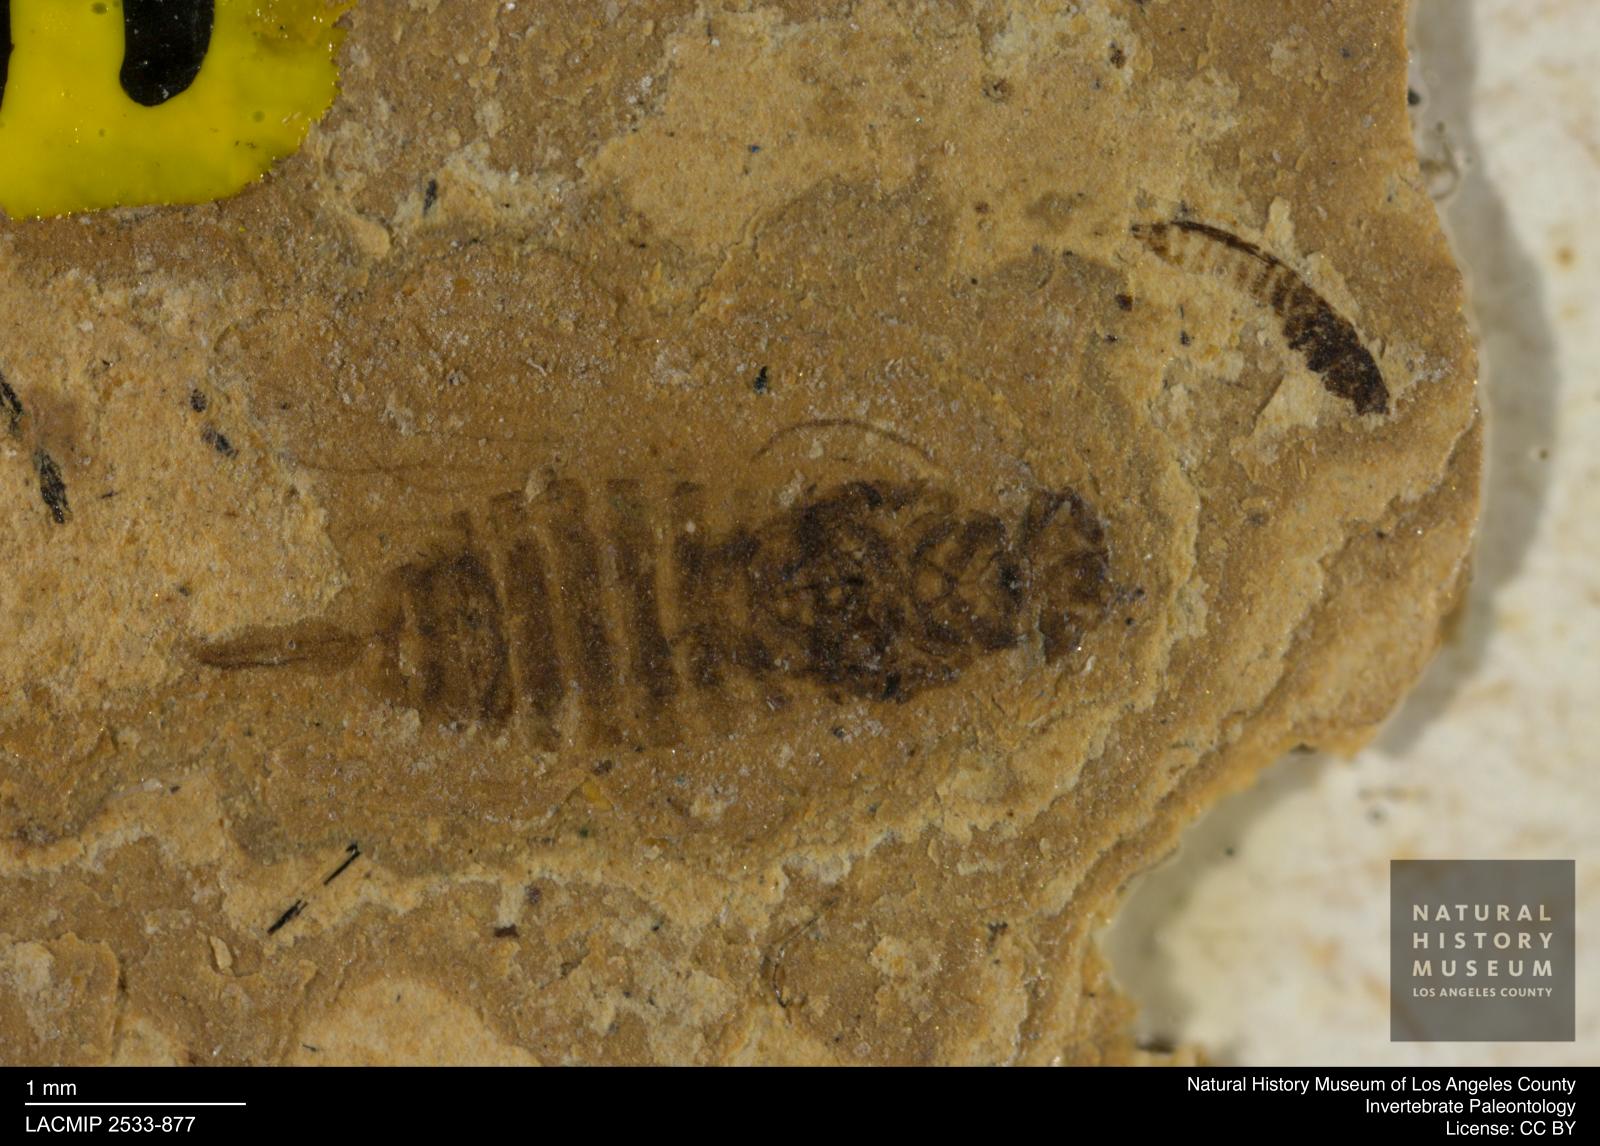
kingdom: Animalia
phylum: Arthropoda
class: Insecta
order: Hymenoptera
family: Xyelidae
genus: Xyela
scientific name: Xyela micrura
